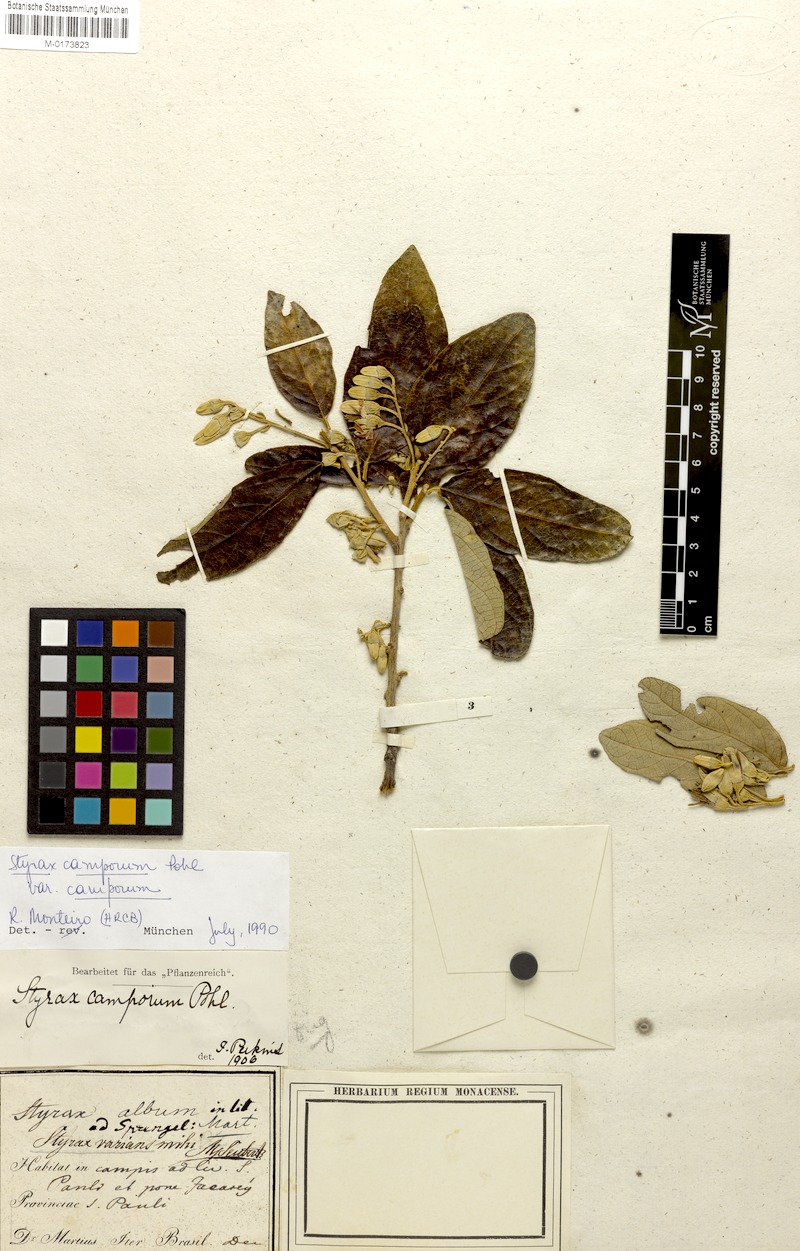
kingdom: Plantae
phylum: Tracheophyta
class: Magnoliopsida
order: Ericales
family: Styracaceae
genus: Styrax
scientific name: Styrax camporum
